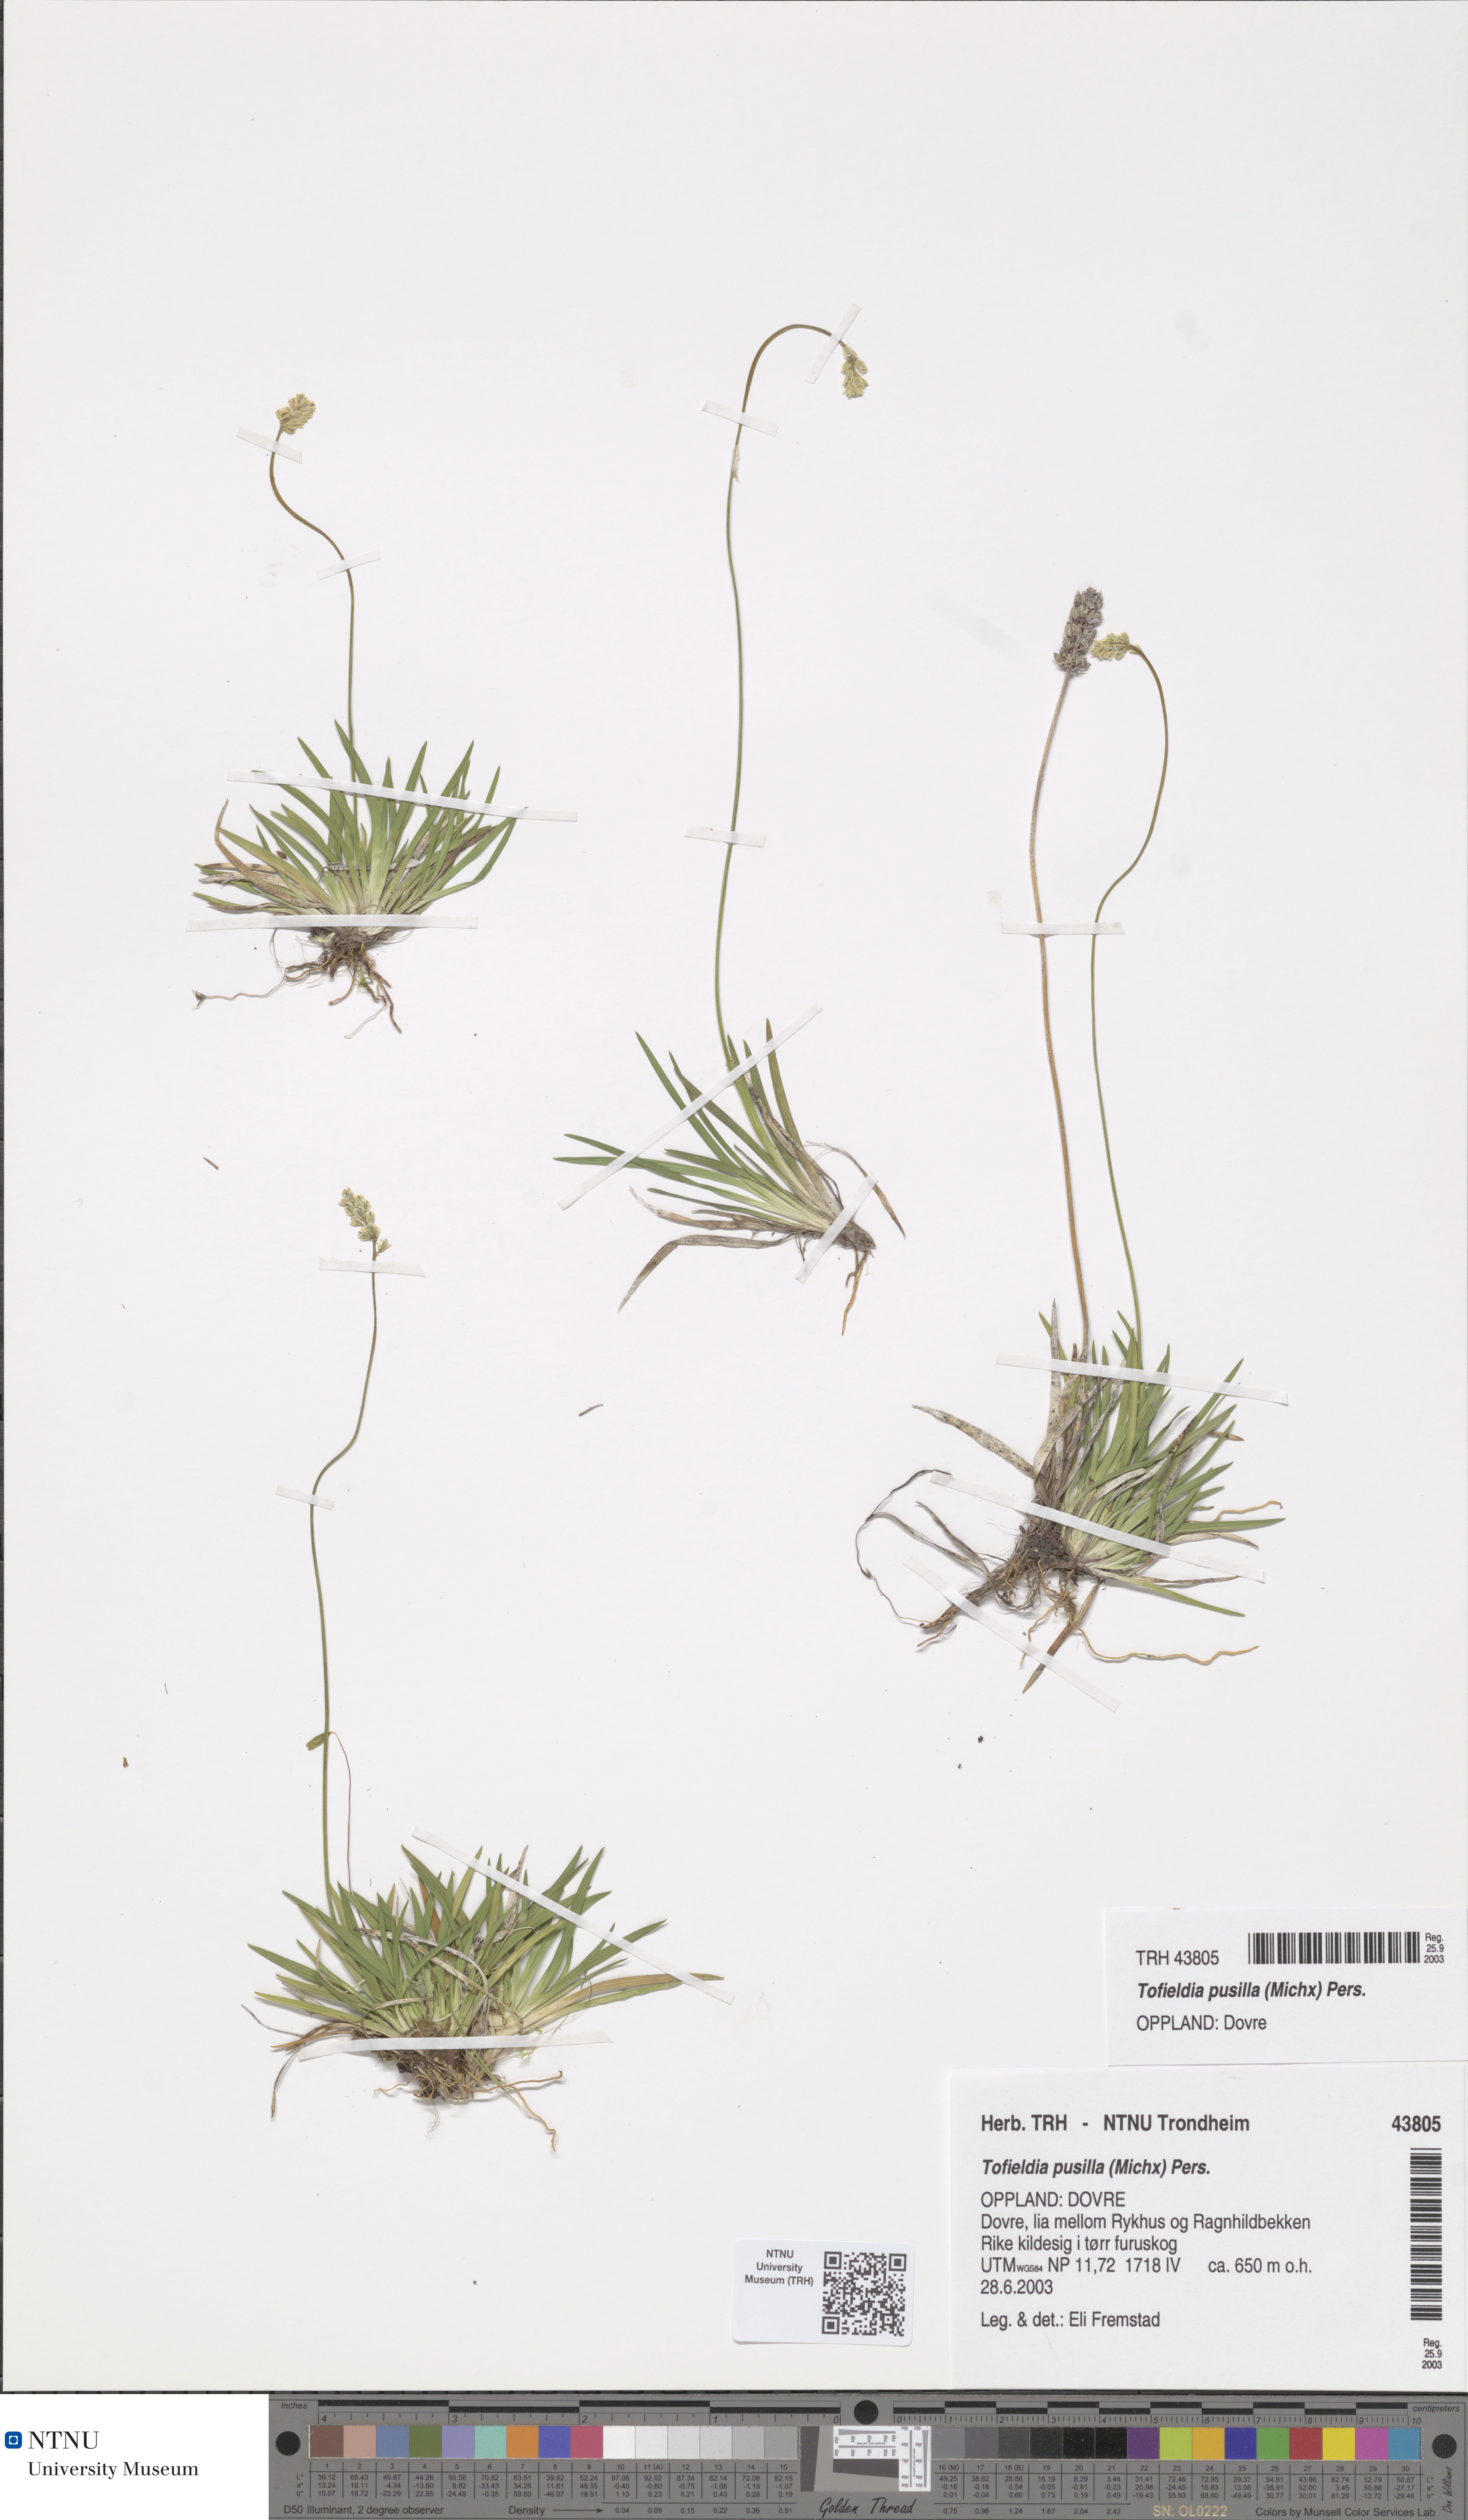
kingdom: Plantae
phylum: Tracheophyta
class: Liliopsida
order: Alismatales
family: Tofieldiaceae
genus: Tofieldia
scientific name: Tofieldia pusilla
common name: Scottish false asphodel
